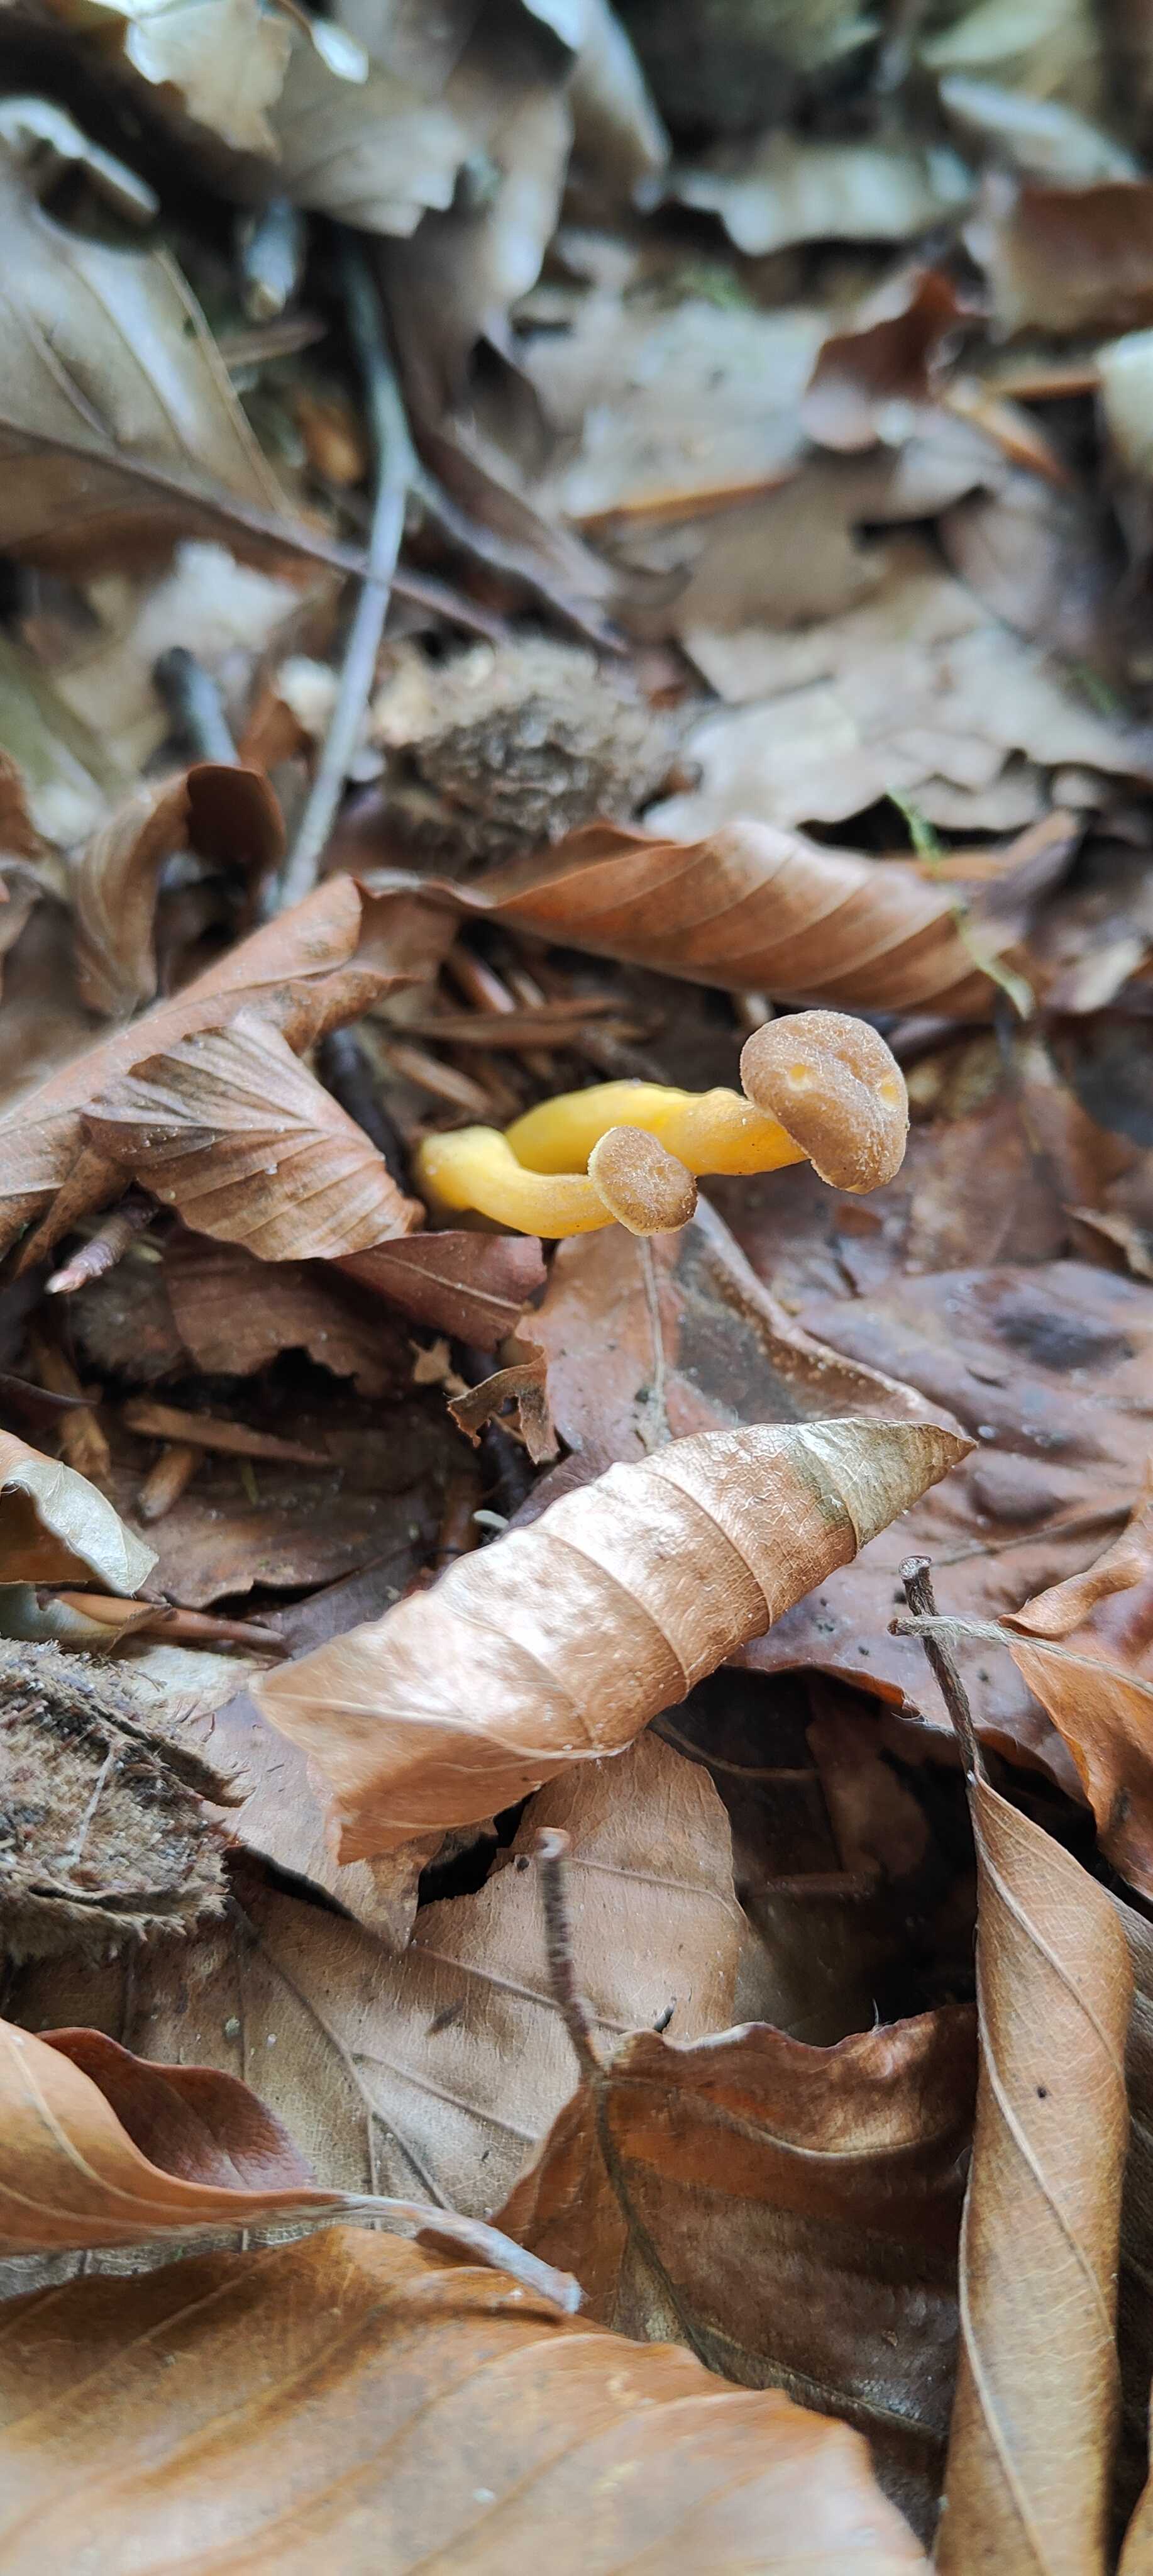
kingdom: Fungi
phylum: Basidiomycota
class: Agaricomycetes
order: Cantharellales
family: Hydnaceae
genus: Craterellus
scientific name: Craterellus tubaeformis
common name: tragt-kantarel
